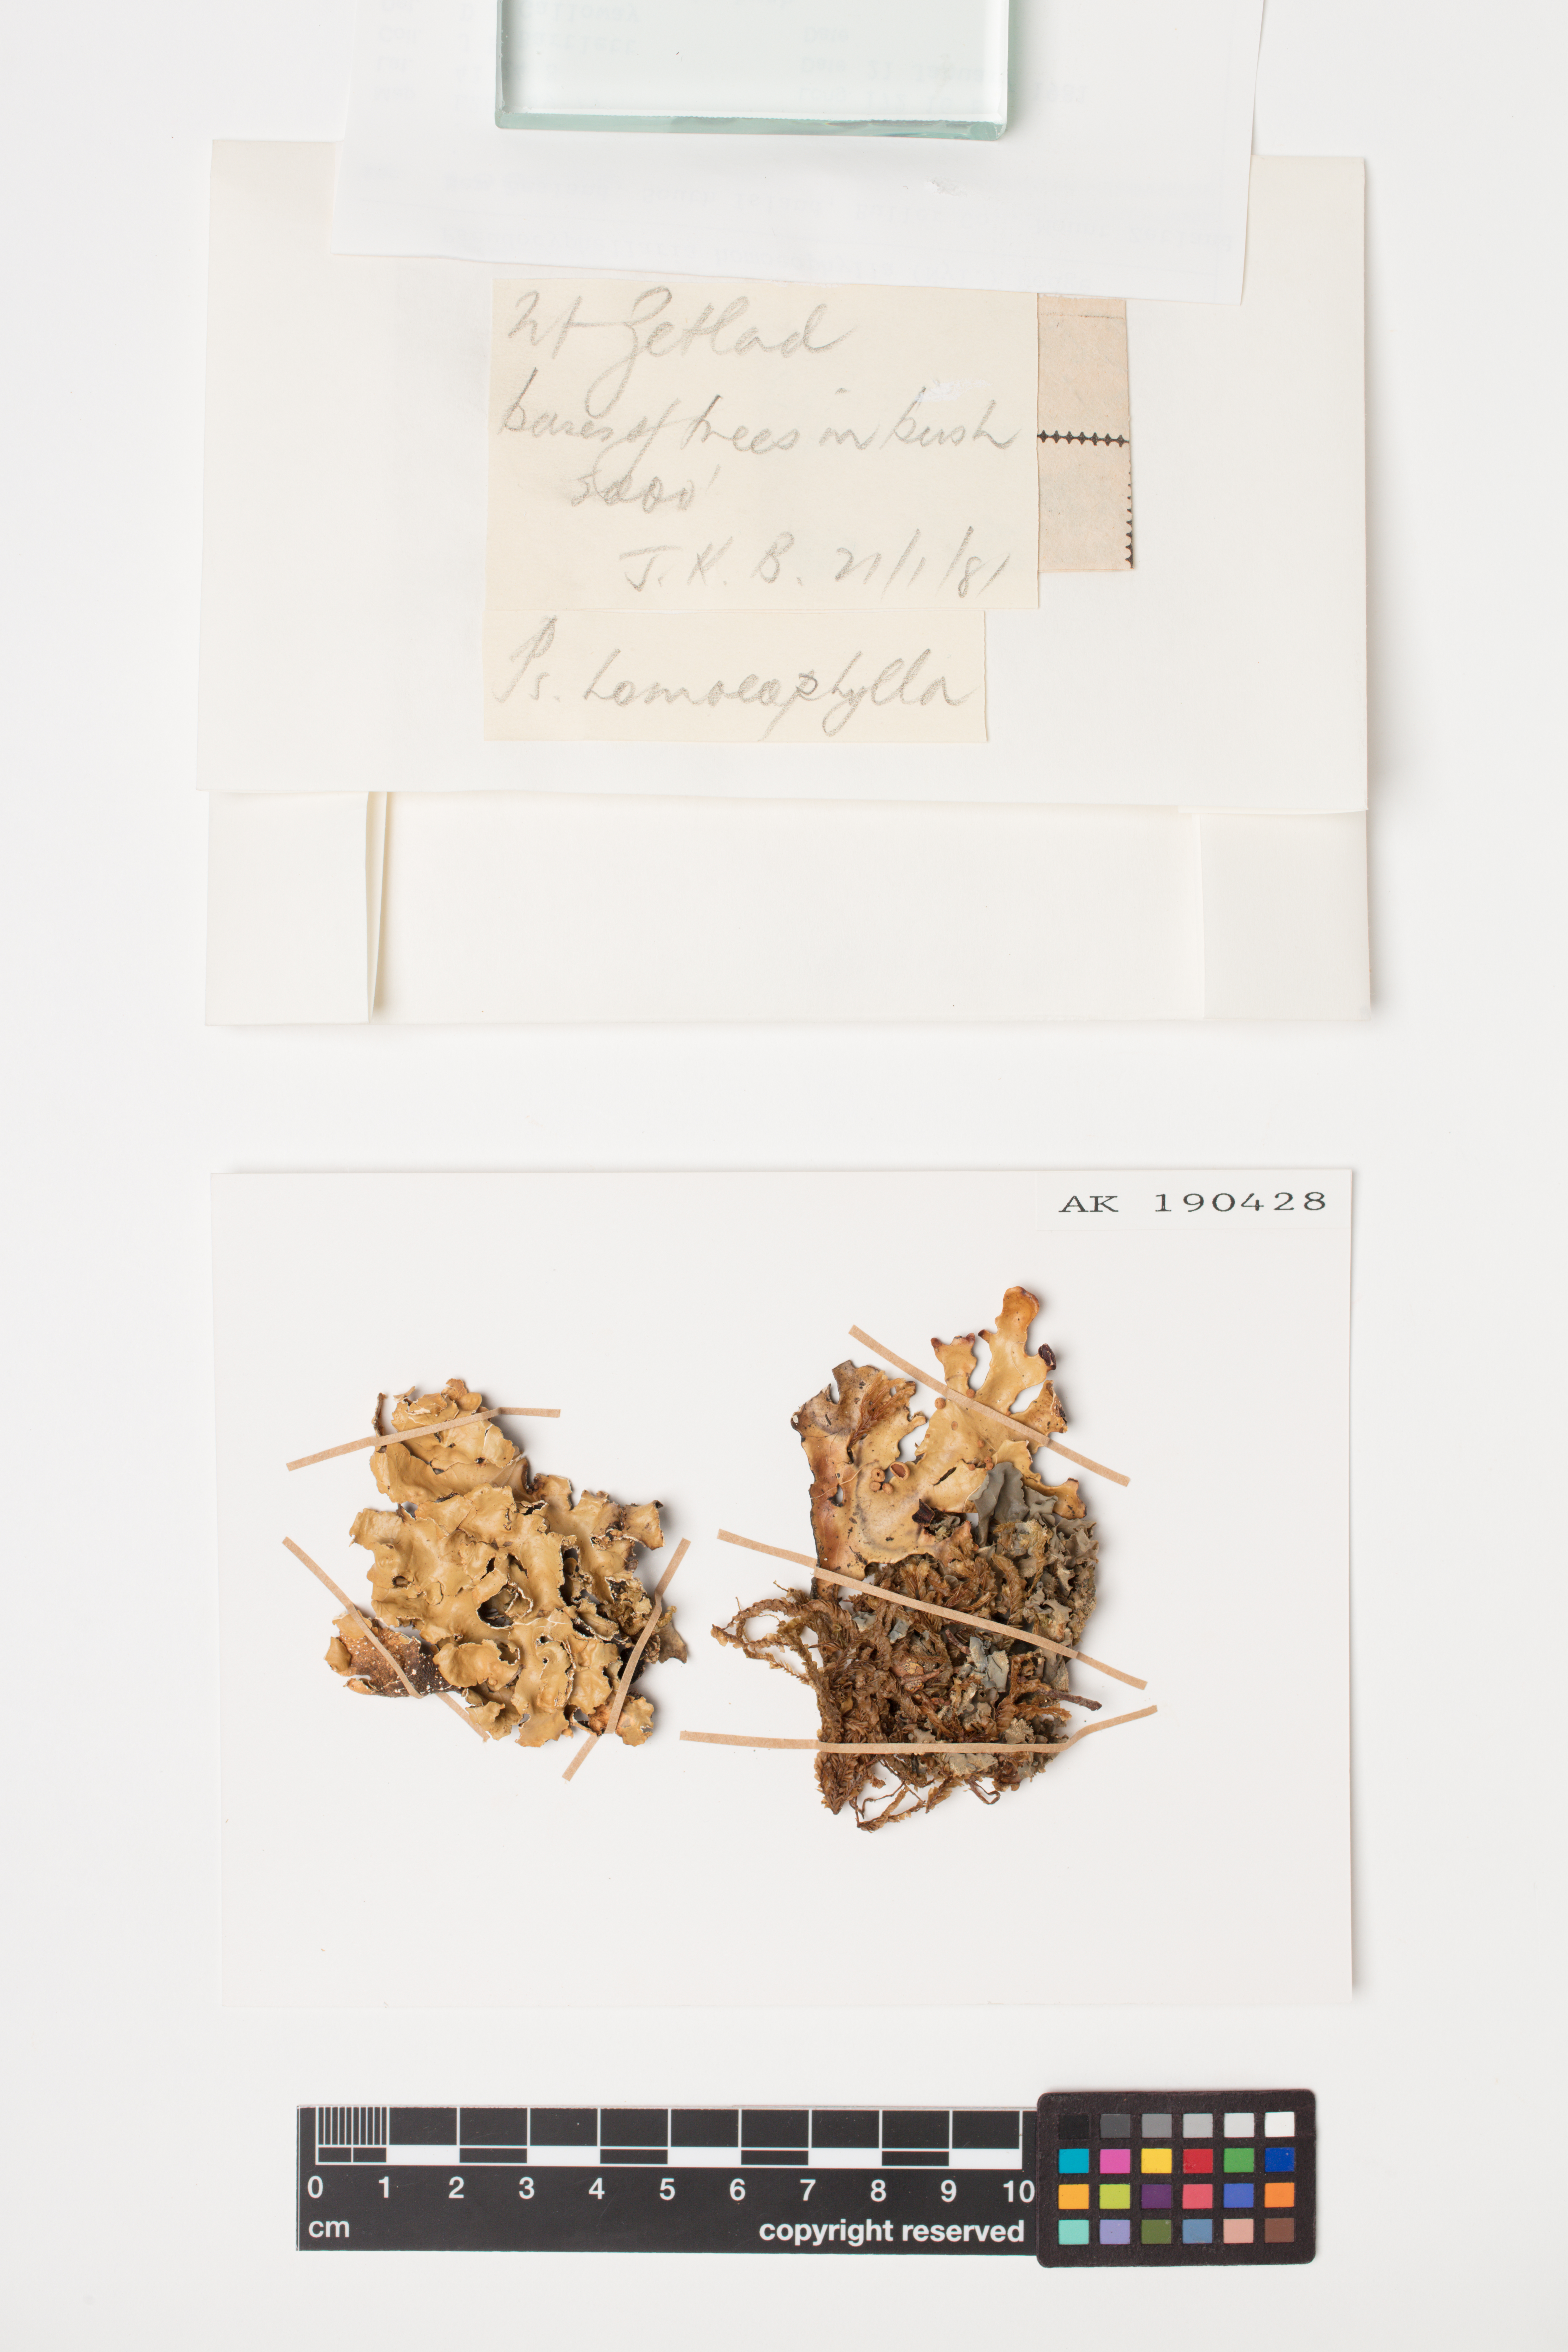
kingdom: Fungi
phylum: Ascomycota
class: Lecanoromycetes
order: Peltigerales
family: Lobariaceae
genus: Pseudocyphellaria
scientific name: Pseudocyphellaria homeophylla
